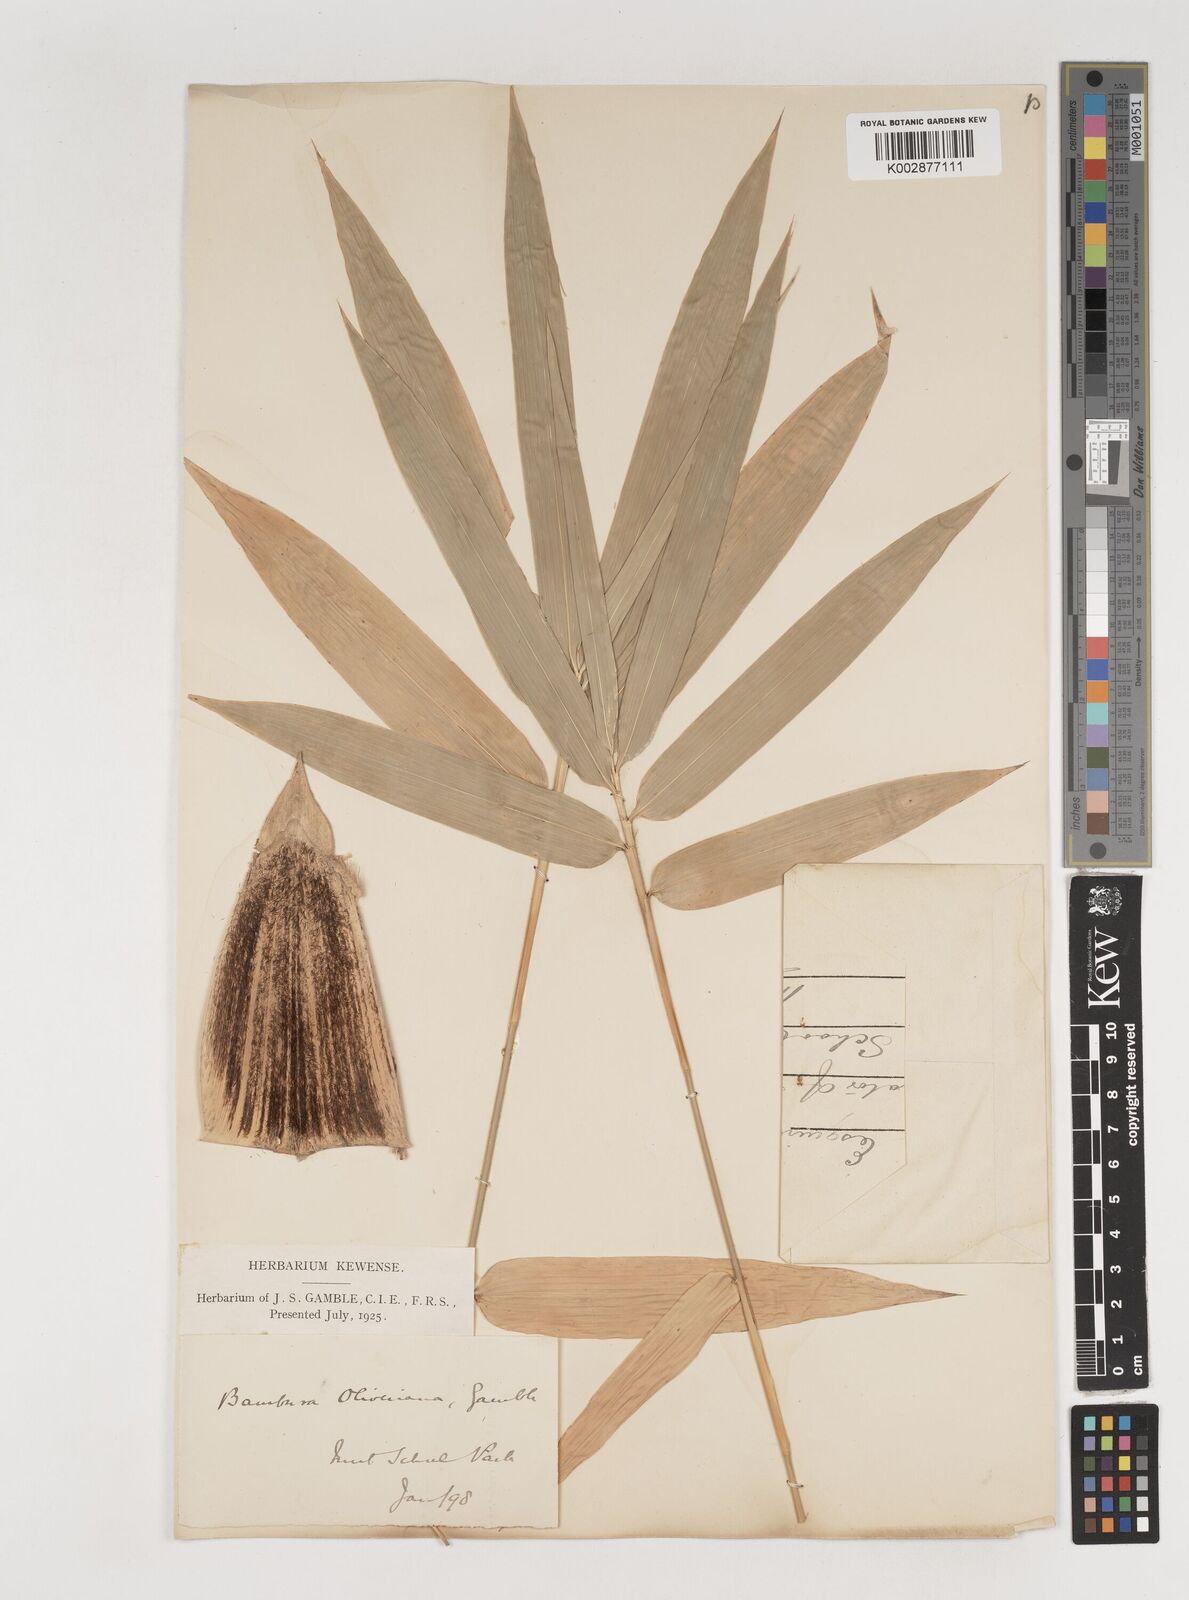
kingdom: Plantae
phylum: Tracheophyta
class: Liliopsida
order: Poales
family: Poaceae
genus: Bambusa
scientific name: Bambusa
